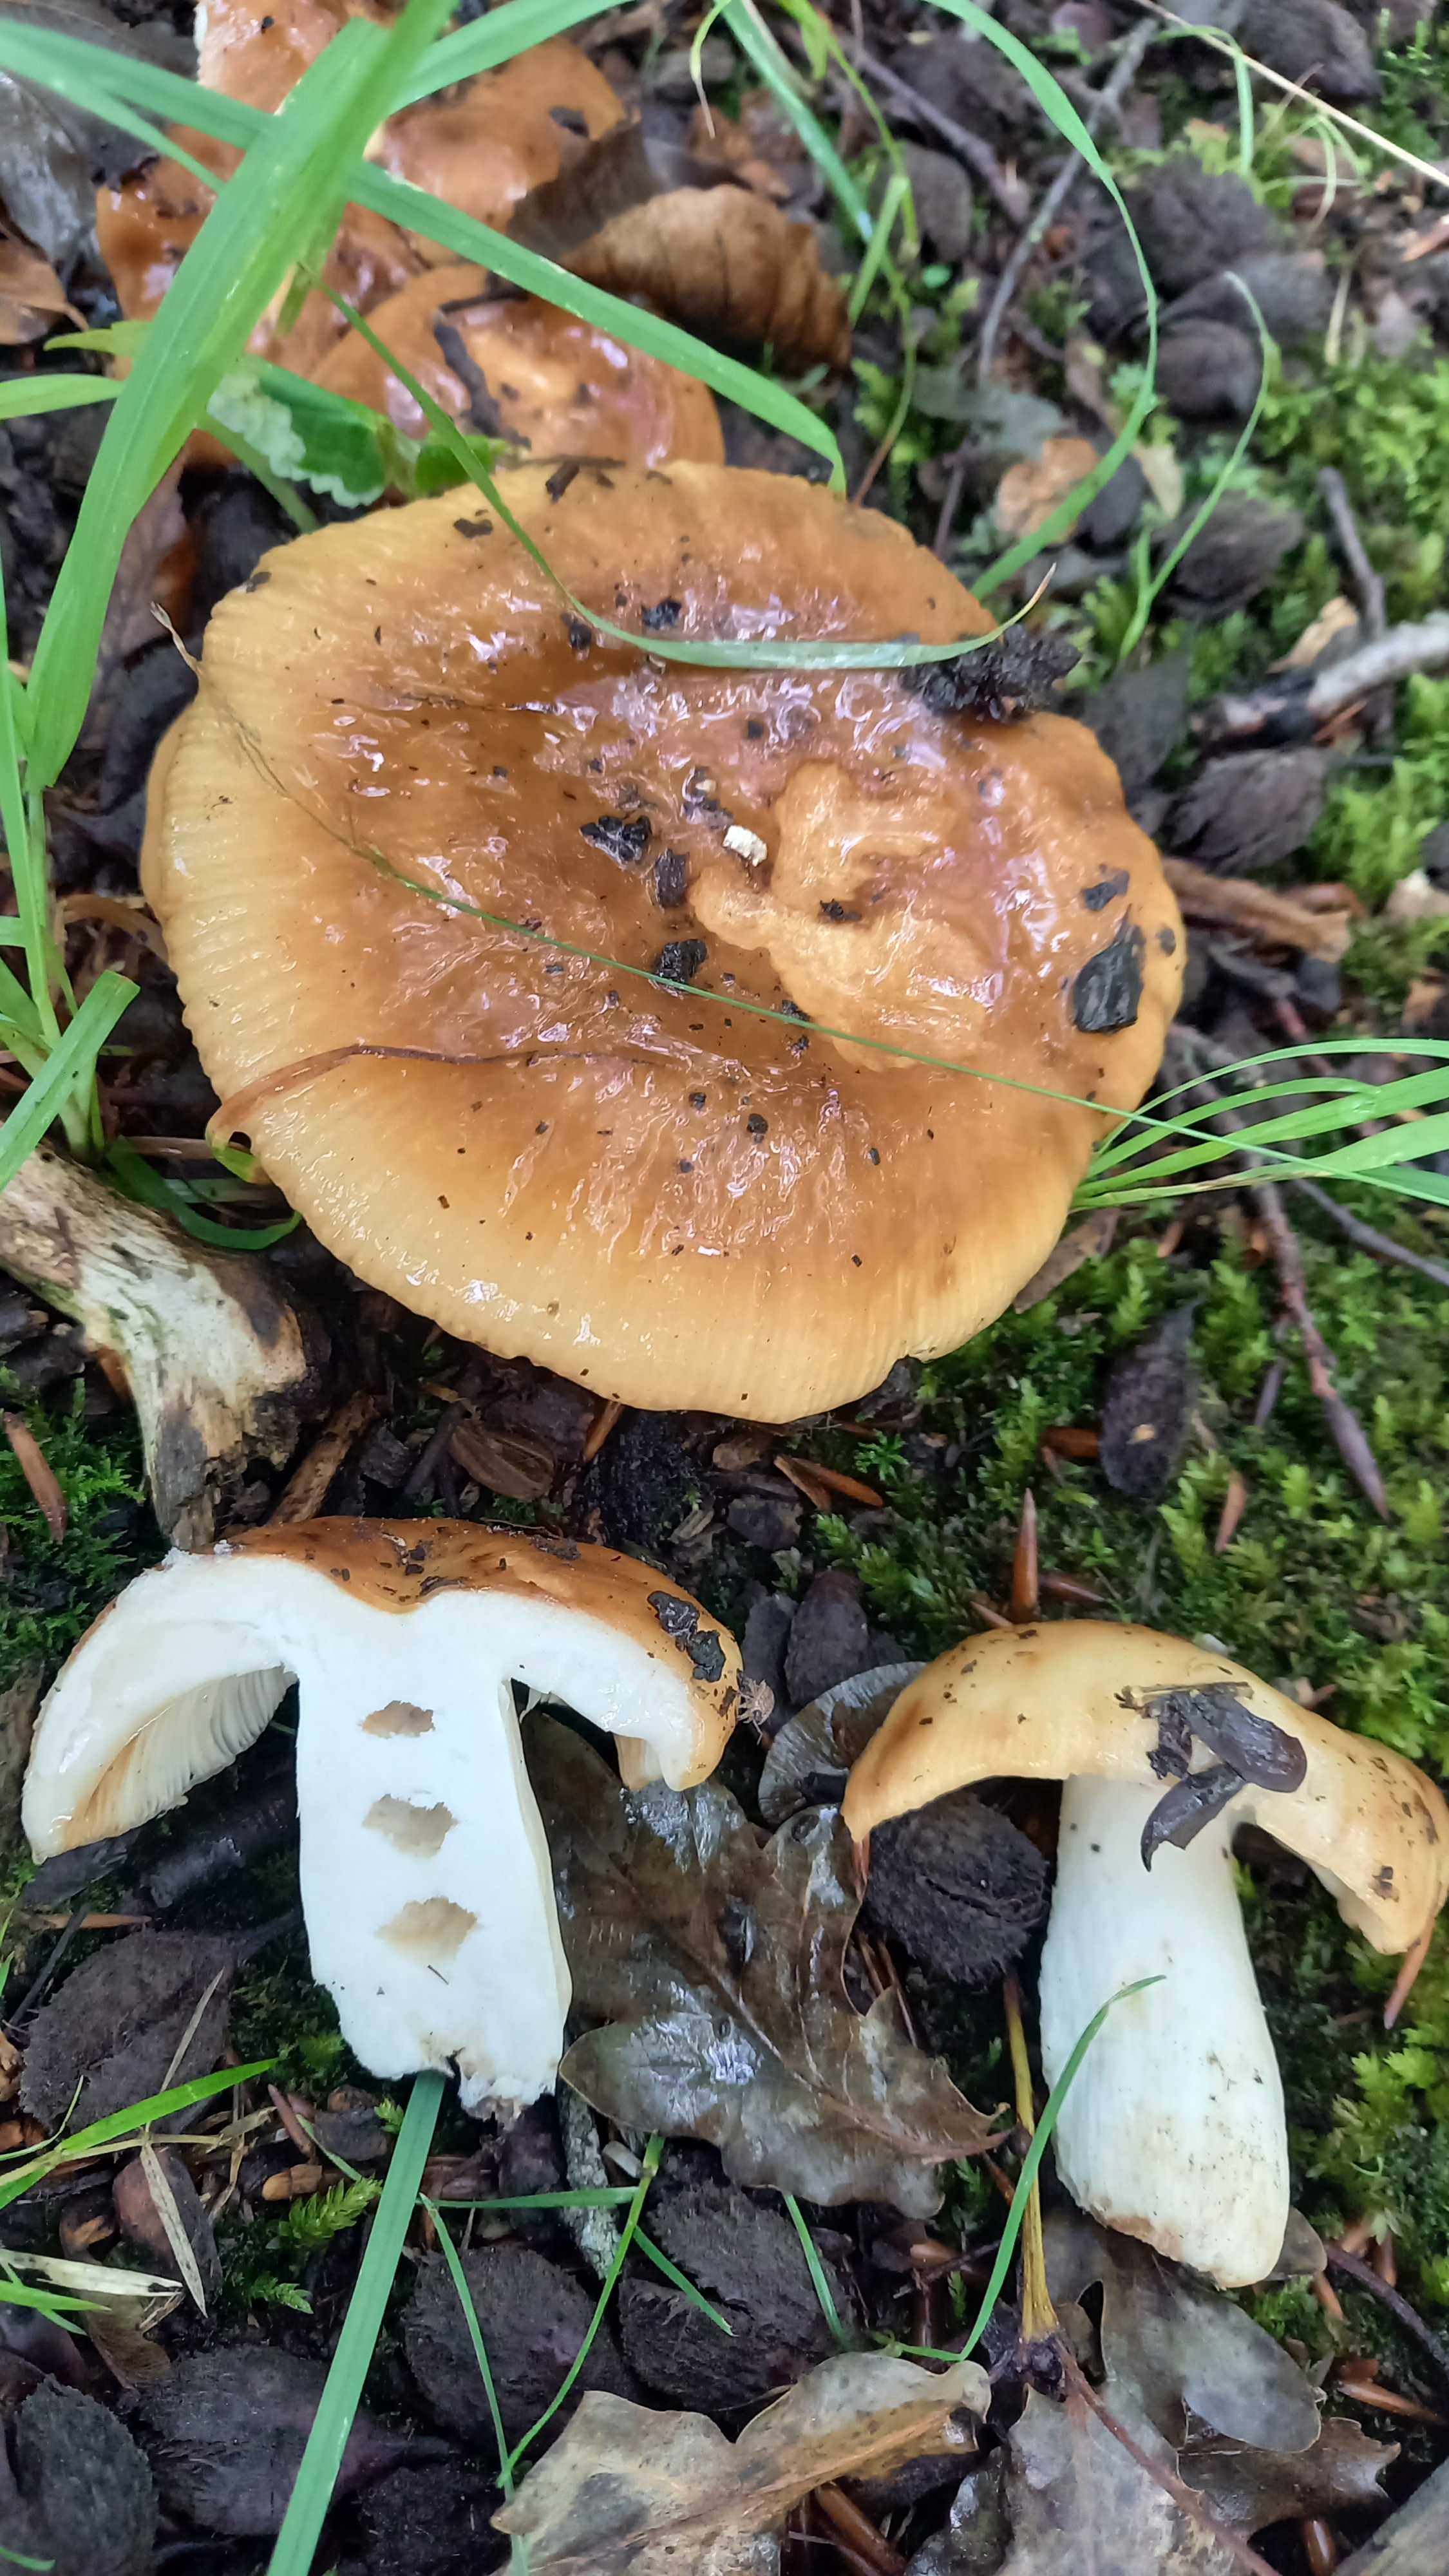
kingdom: Fungi
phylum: Basidiomycota
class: Agaricomycetes
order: Russulales
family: Russulaceae
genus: Russula
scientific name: Russula foetens
